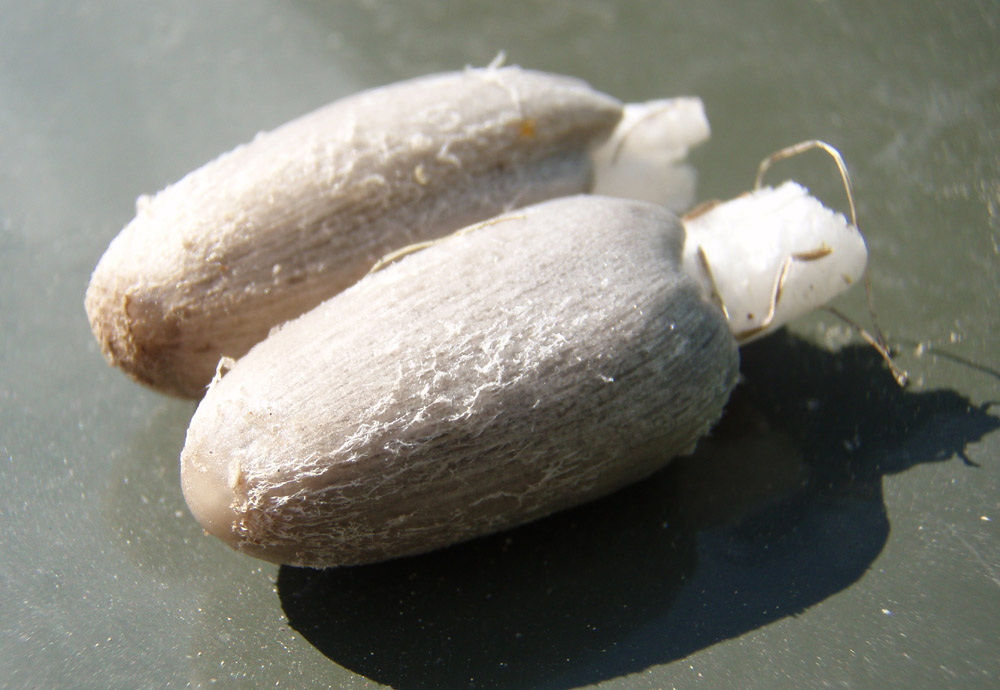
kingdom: Fungi
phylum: Basidiomycota
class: Agaricomycetes
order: Agaricales
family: Psathyrellaceae
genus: Coprinopsis
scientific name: Coprinopsis lagopus
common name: dunstokket blækhat
